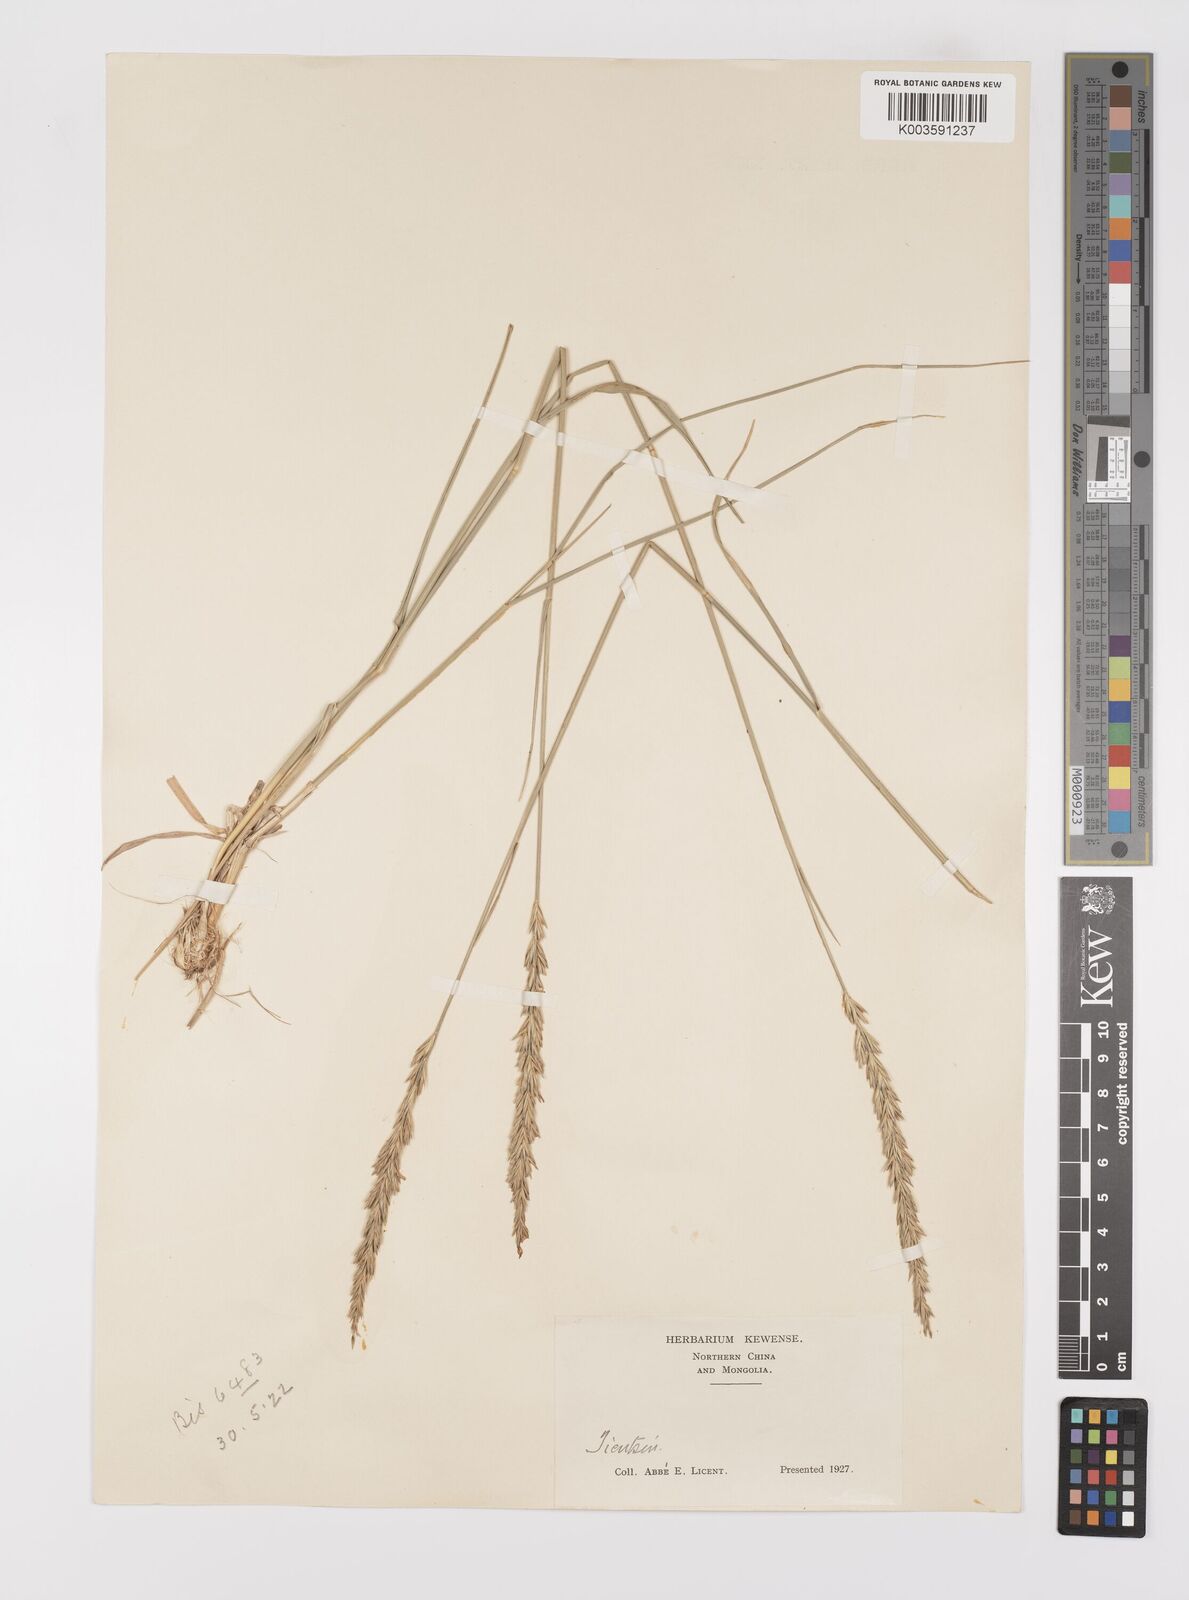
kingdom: Plantae
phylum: Tracheophyta
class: Liliopsida
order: Poales
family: Poaceae
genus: Leymus
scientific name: Leymus chinensis
